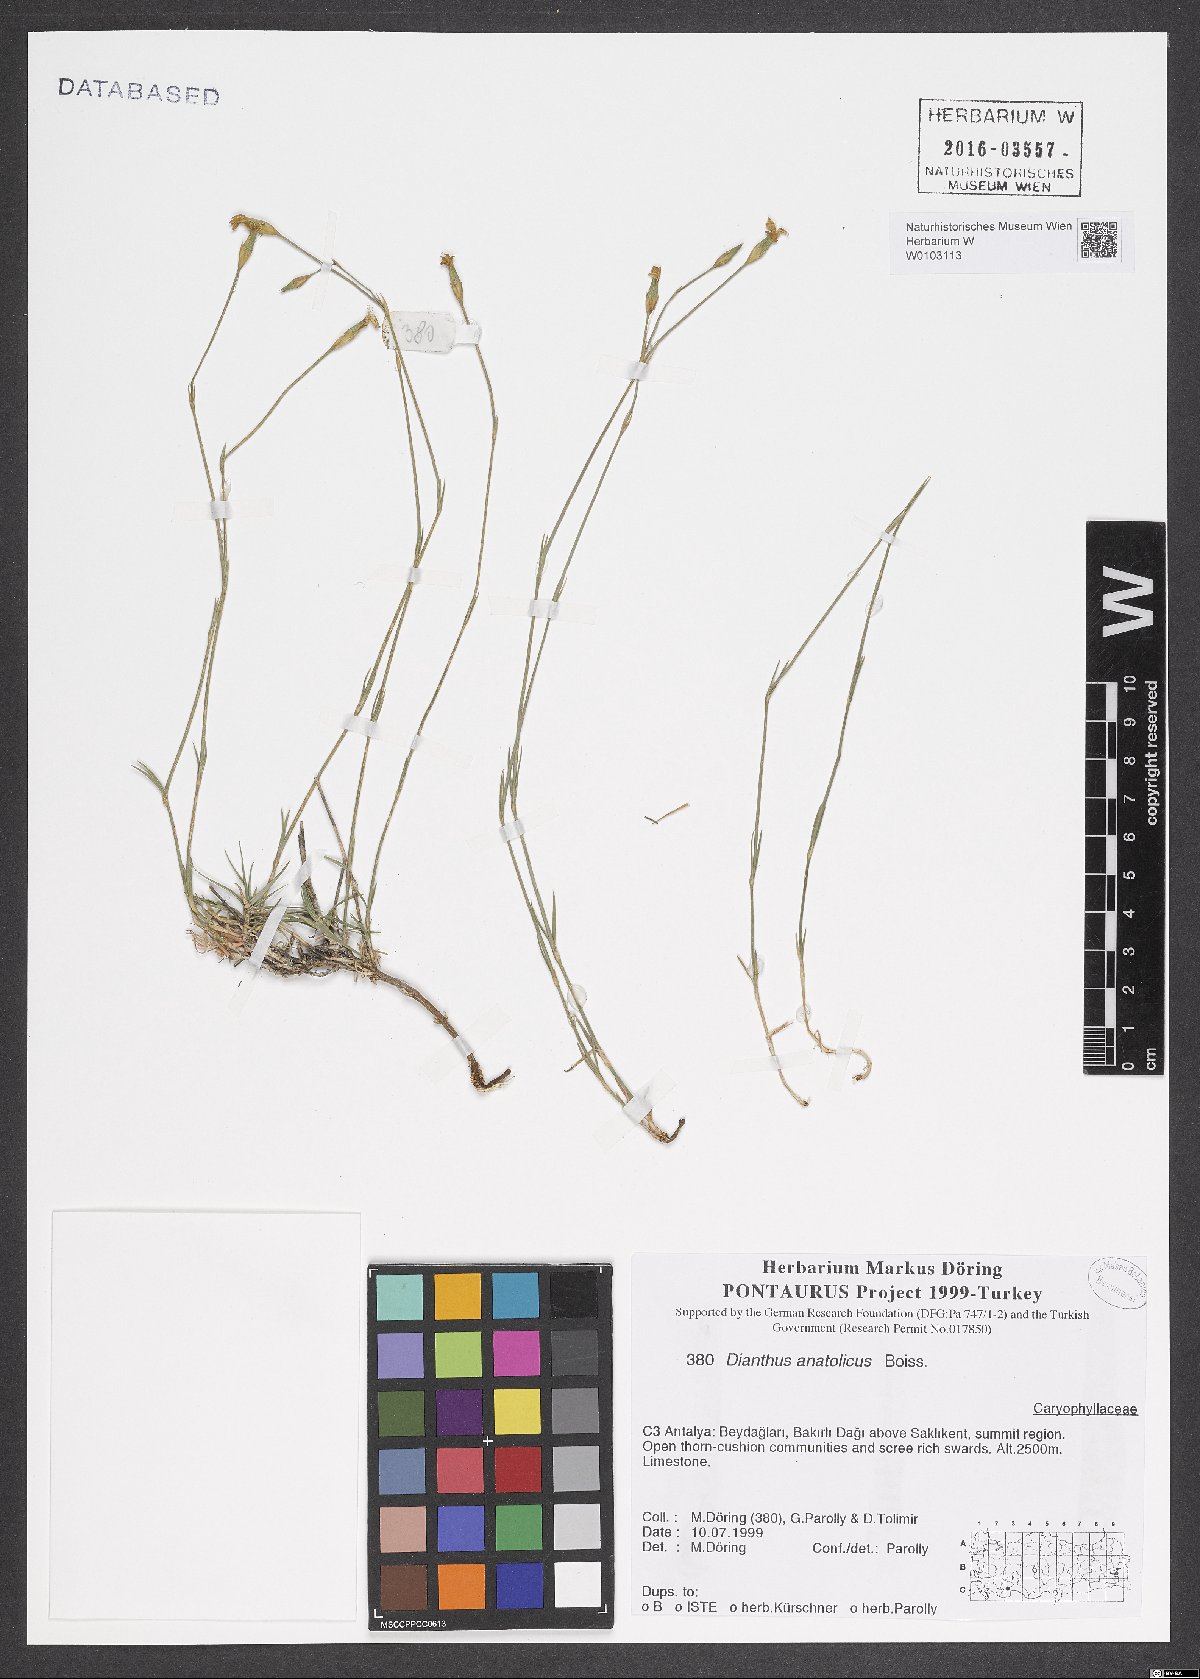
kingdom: Plantae
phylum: Tracheophyta
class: Magnoliopsida
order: Caryophyllales
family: Caryophyllaceae
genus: Dianthus
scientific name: Dianthus anatolicus
